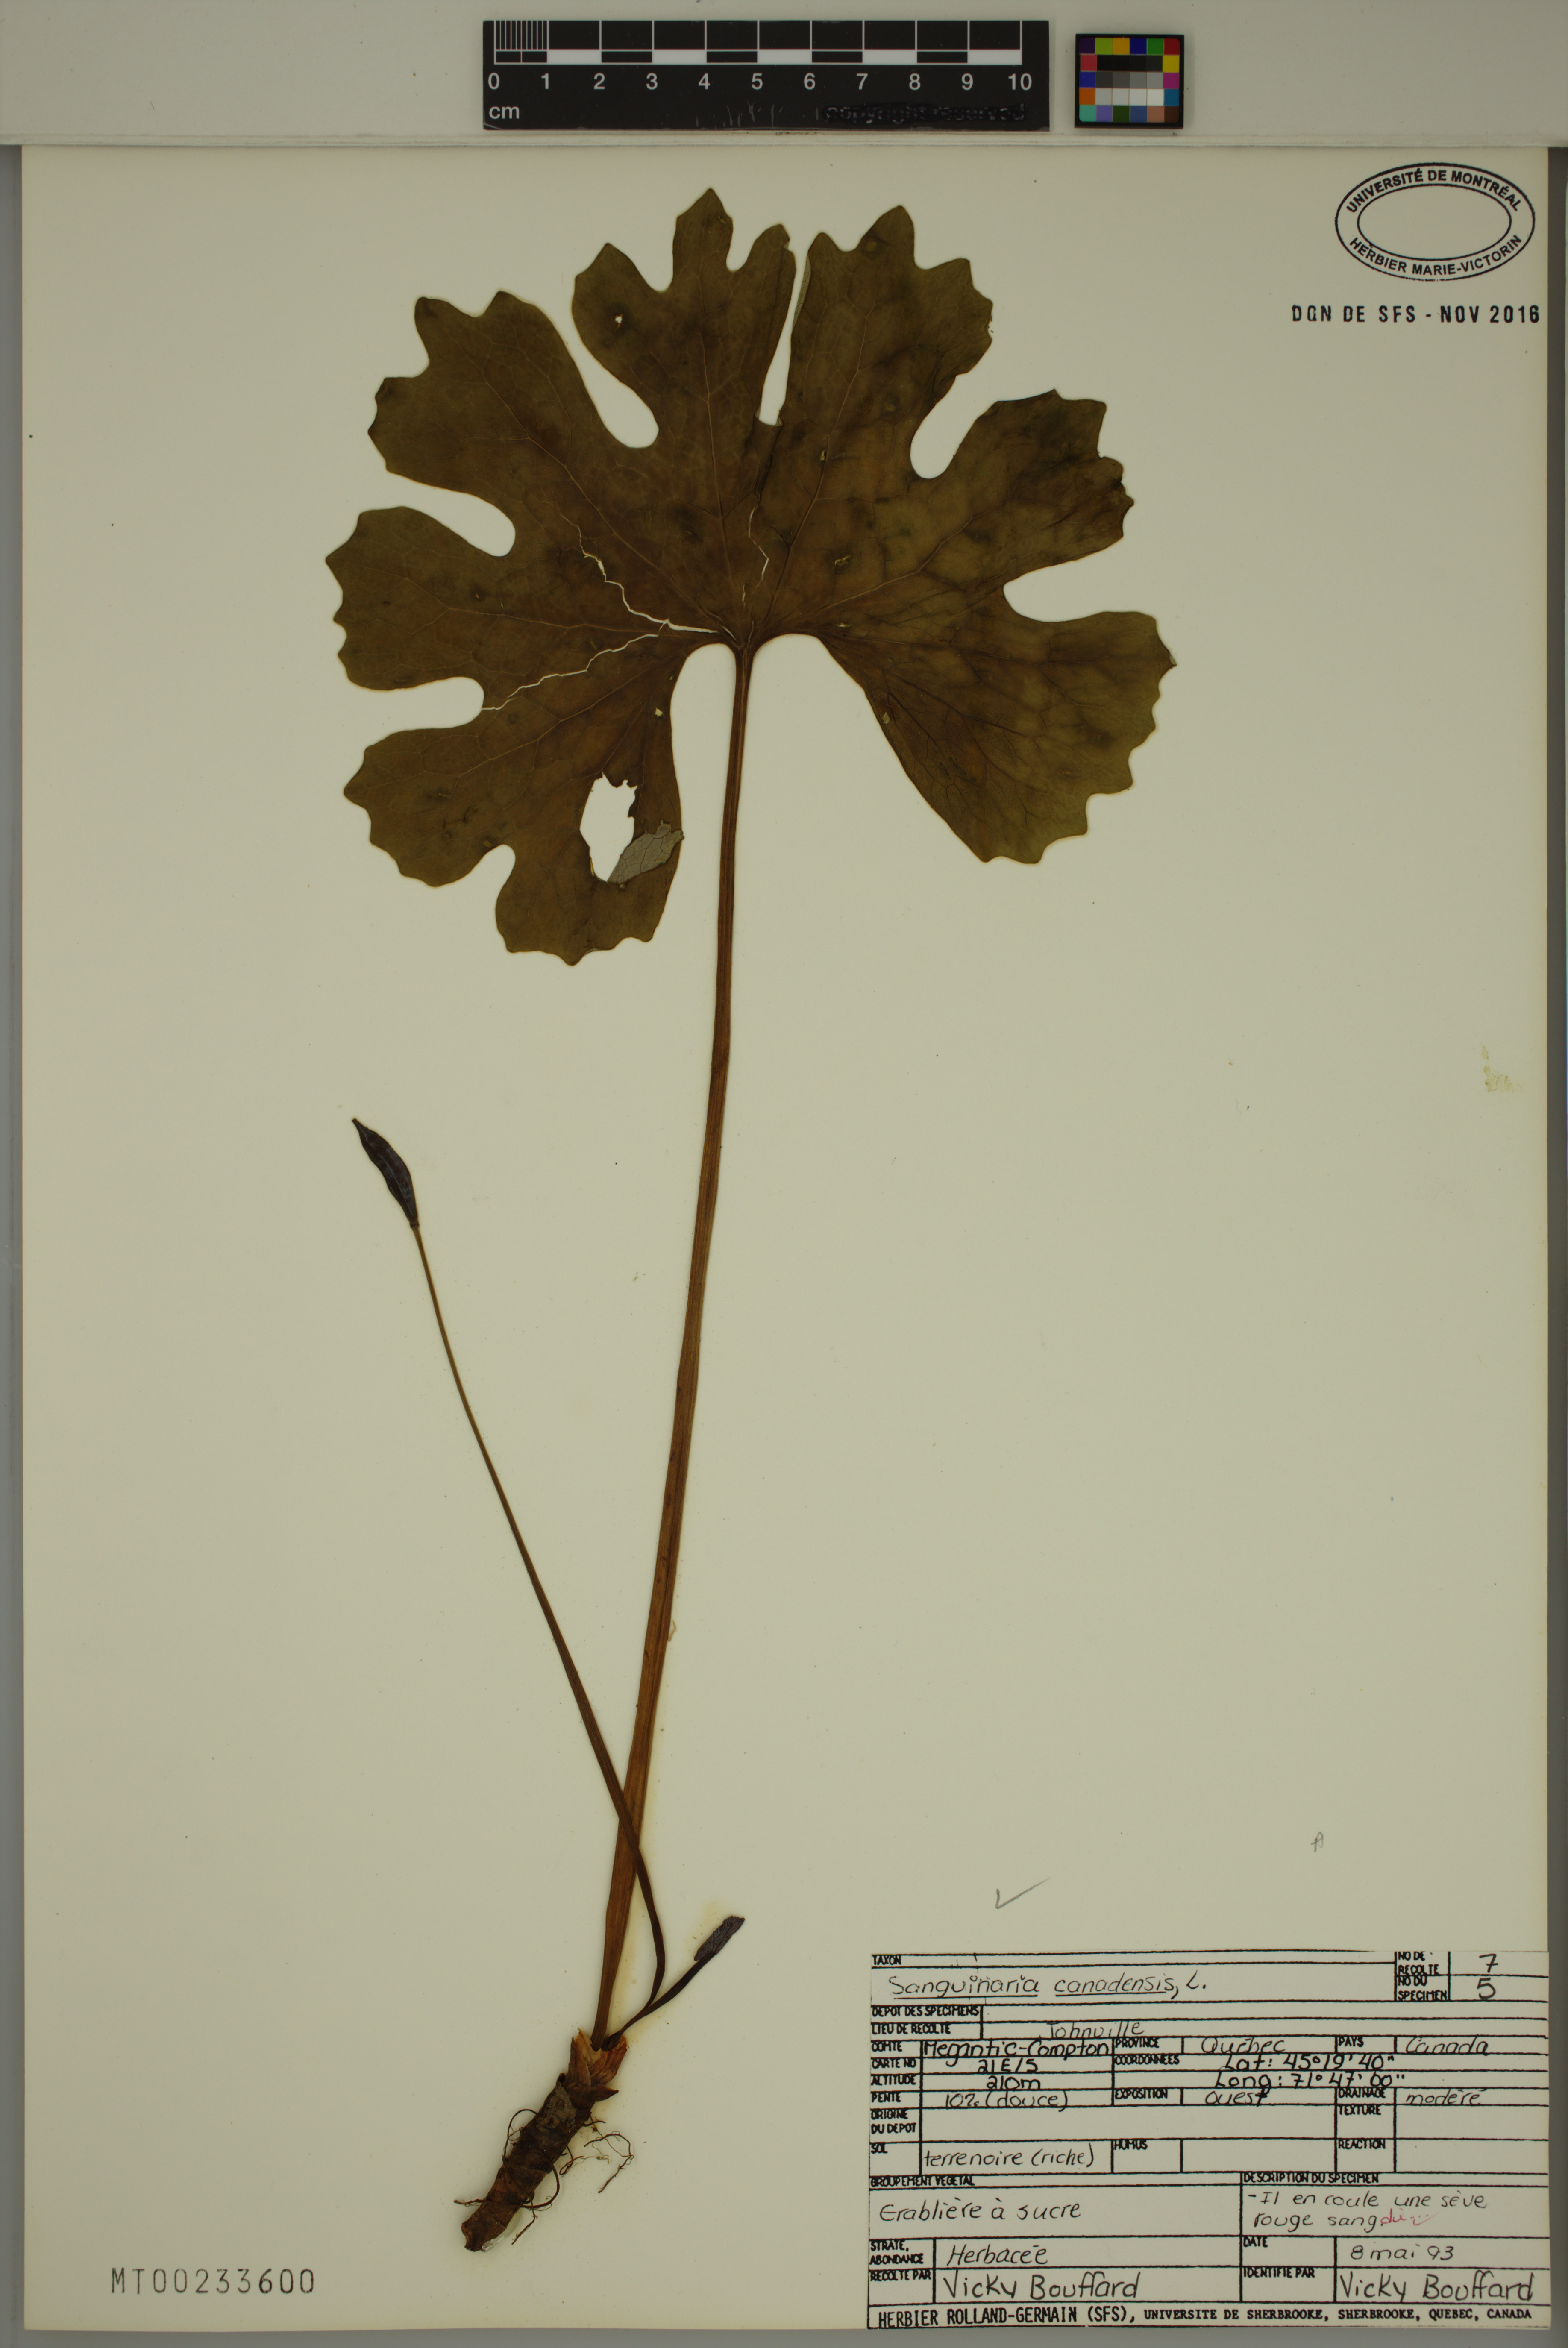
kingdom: Plantae
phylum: Tracheophyta
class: Magnoliopsida
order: Ranunculales
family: Papaveraceae
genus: Sanguinaria
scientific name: Sanguinaria canadensis
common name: Bloodroot
